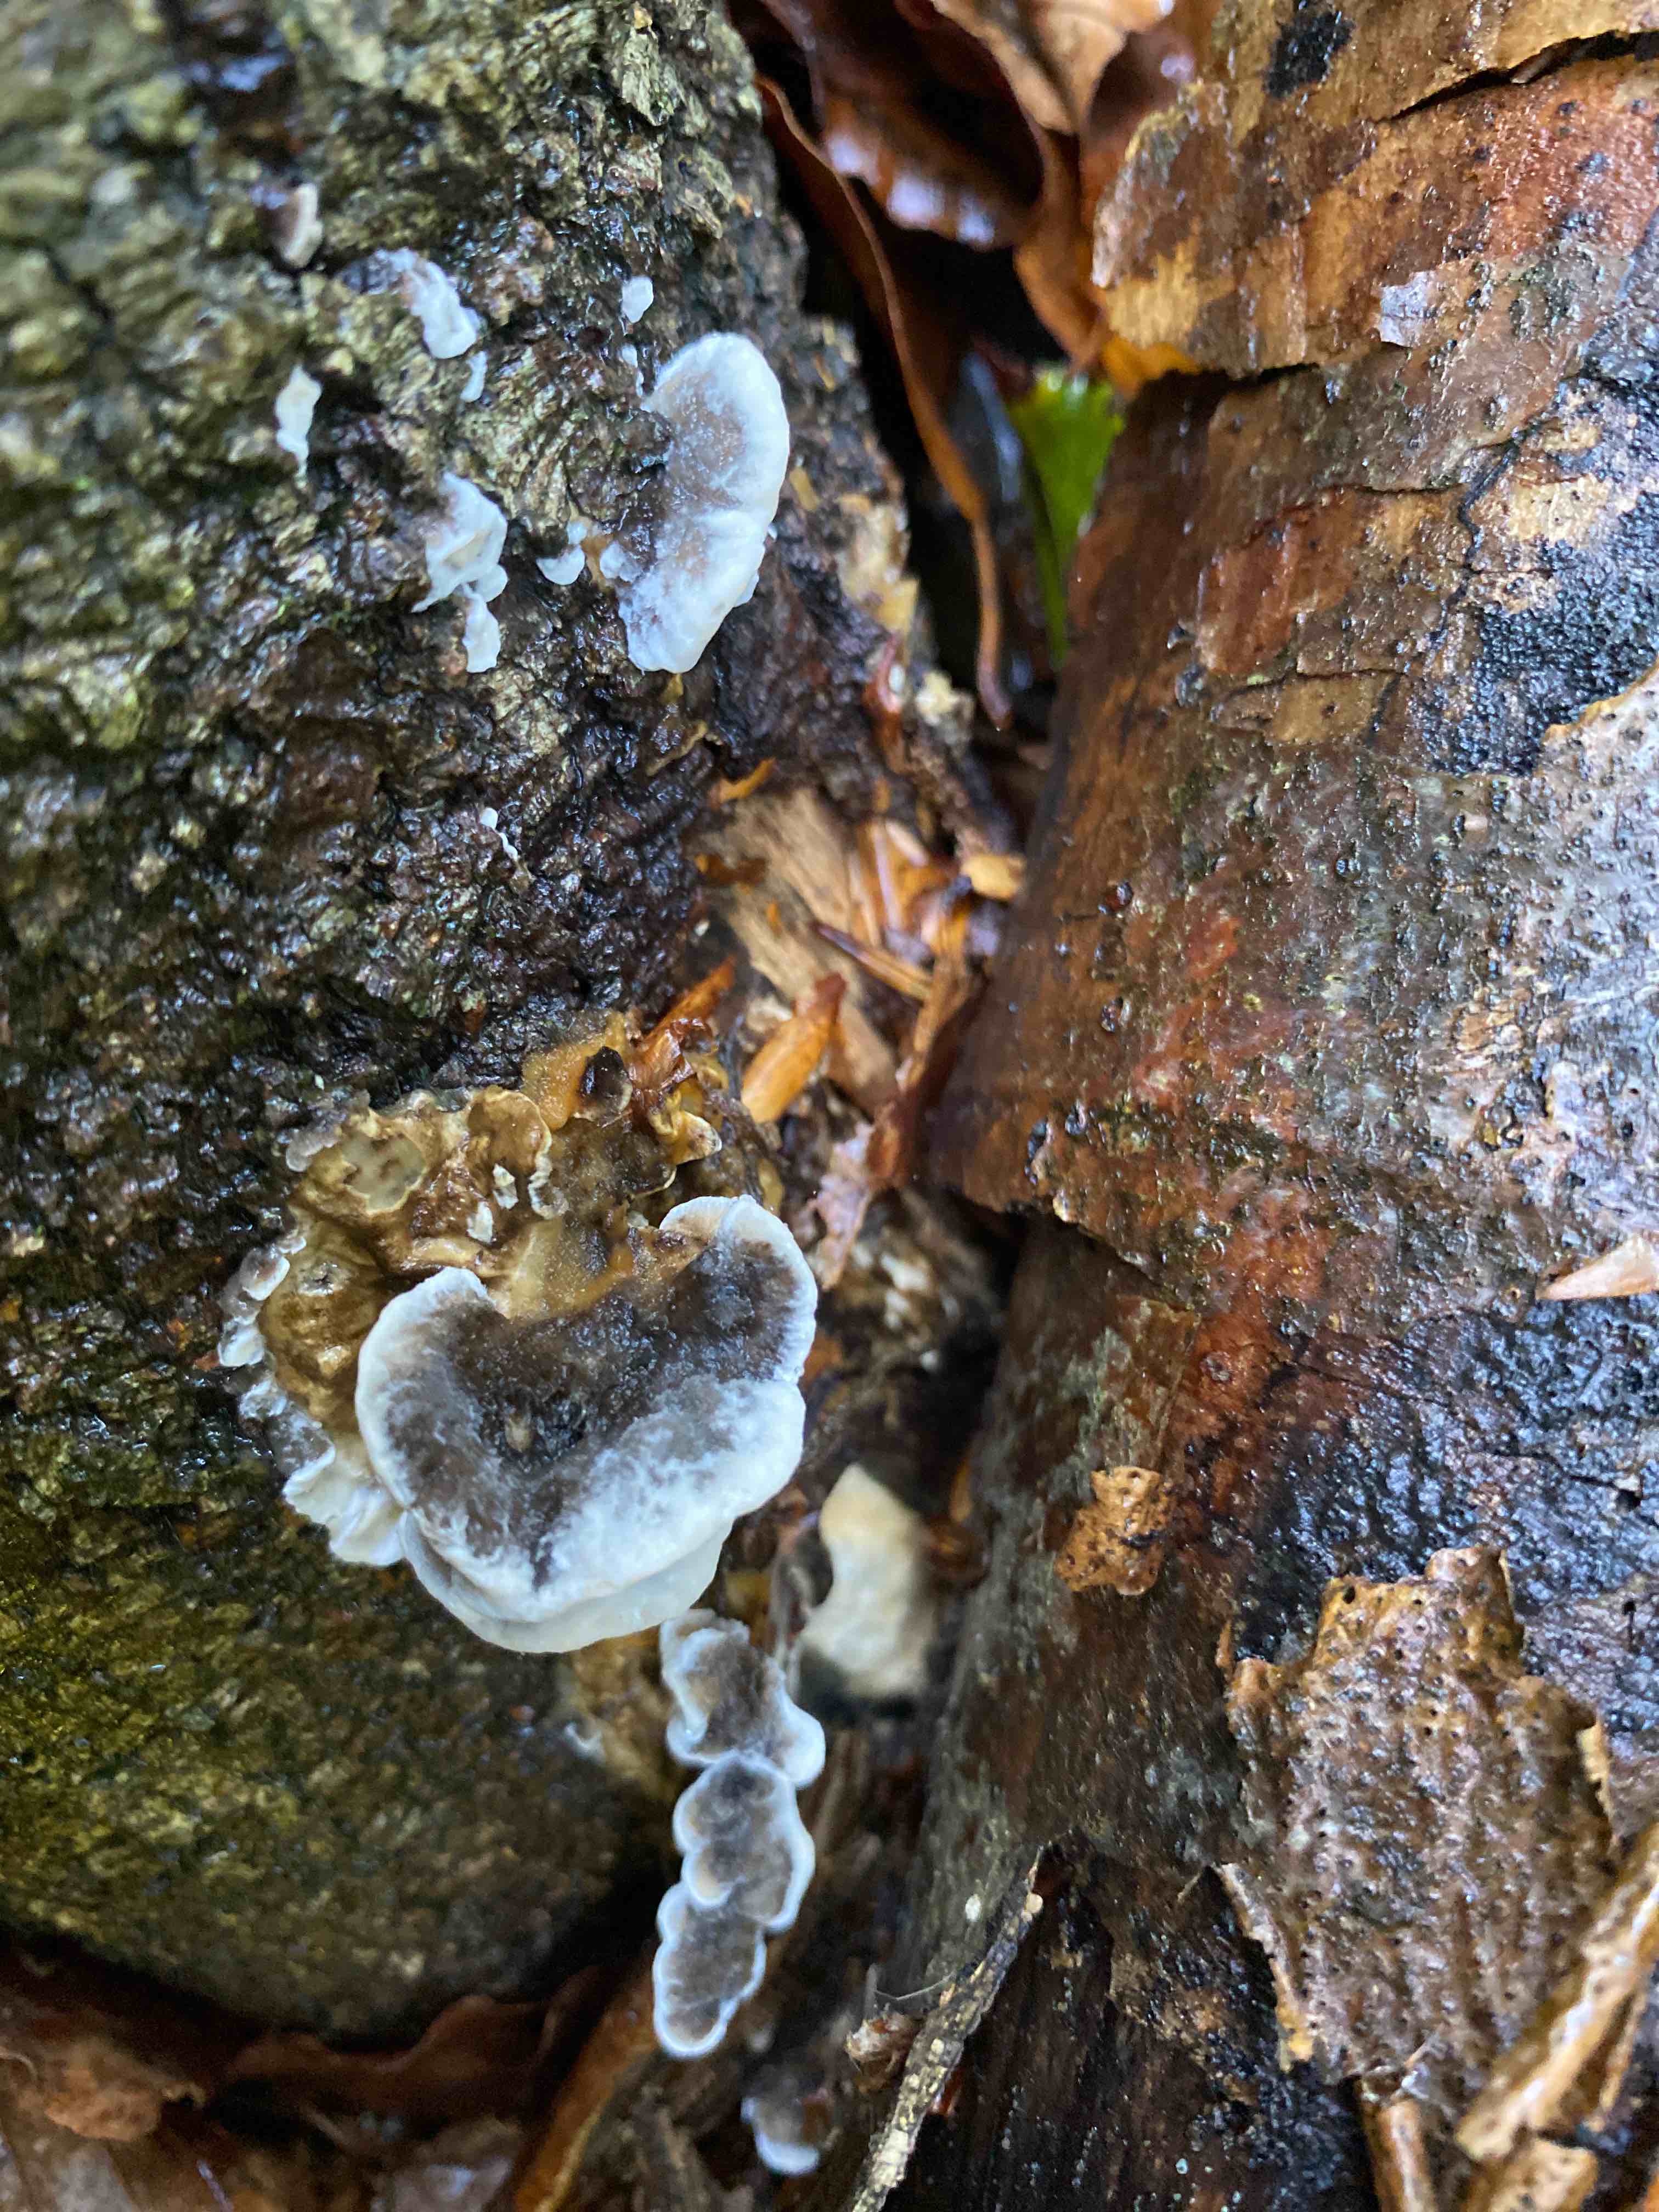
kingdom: Fungi
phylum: Basidiomycota
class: Agaricomycetes
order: Polyporales
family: Phanerochaetaceae
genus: Bjerkandera
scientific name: Bjerkandera adusta
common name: sveden sodporesvamp
